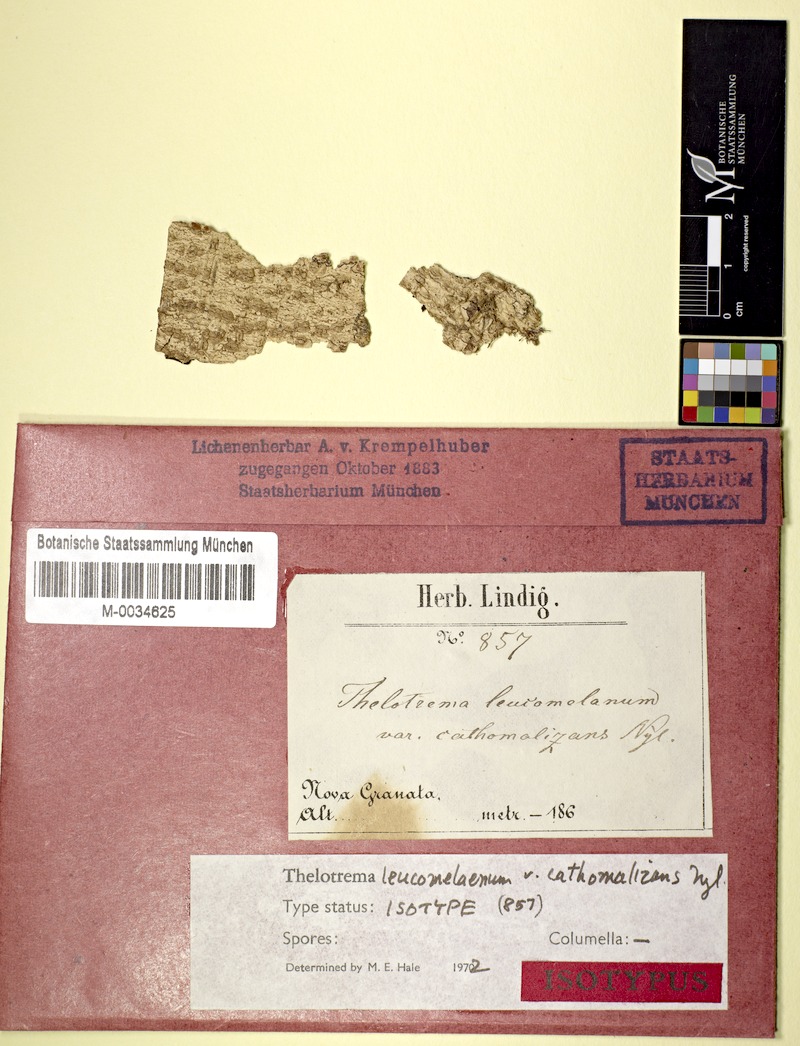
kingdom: Fungi
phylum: Ascomycota
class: Lecanoromycetes
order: Ostropales
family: Graphidaceae
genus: Clandestinotrema
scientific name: Clandestinotrema cathomalizans
